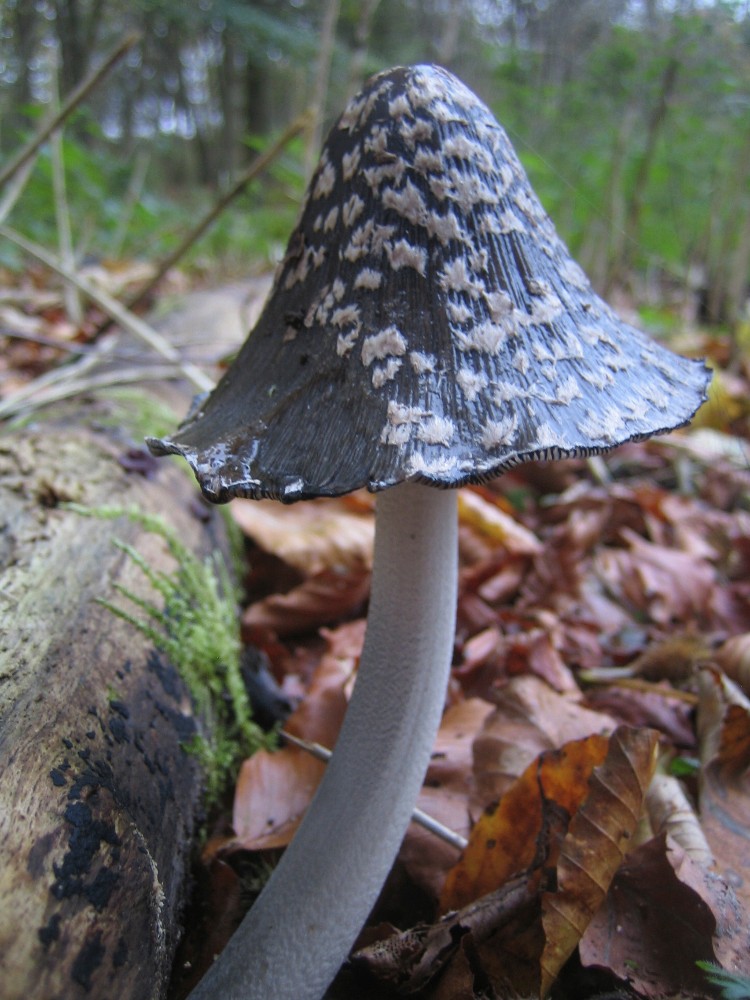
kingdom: Fungi
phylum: Basidiomycota
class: Agaricomycetes
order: Agaricales
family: Psathyrellaceae
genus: Coprinopsis
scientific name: Coprinopsis picacea
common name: skade-blækhat
